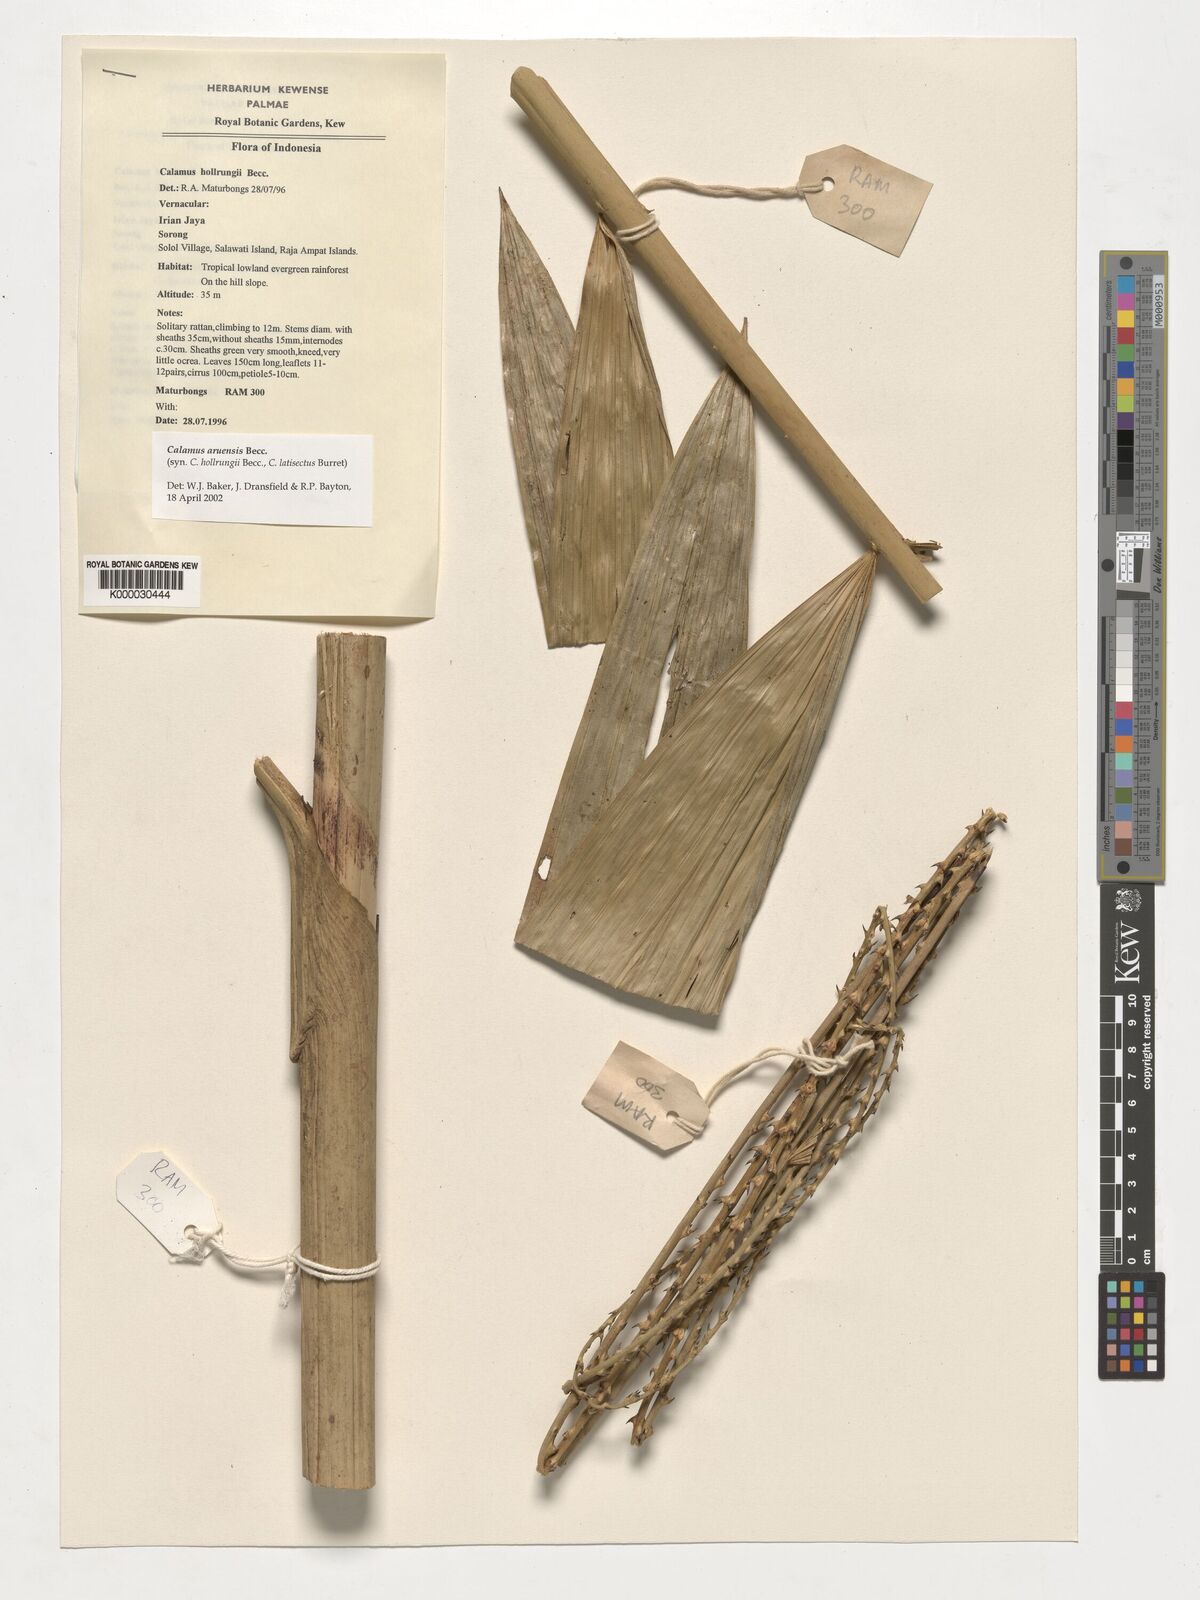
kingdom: Plantae
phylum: Tracheophyta
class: Liliopsida
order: Arecales
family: Arecaceae
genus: Calamus
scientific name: Calamus aruensis
